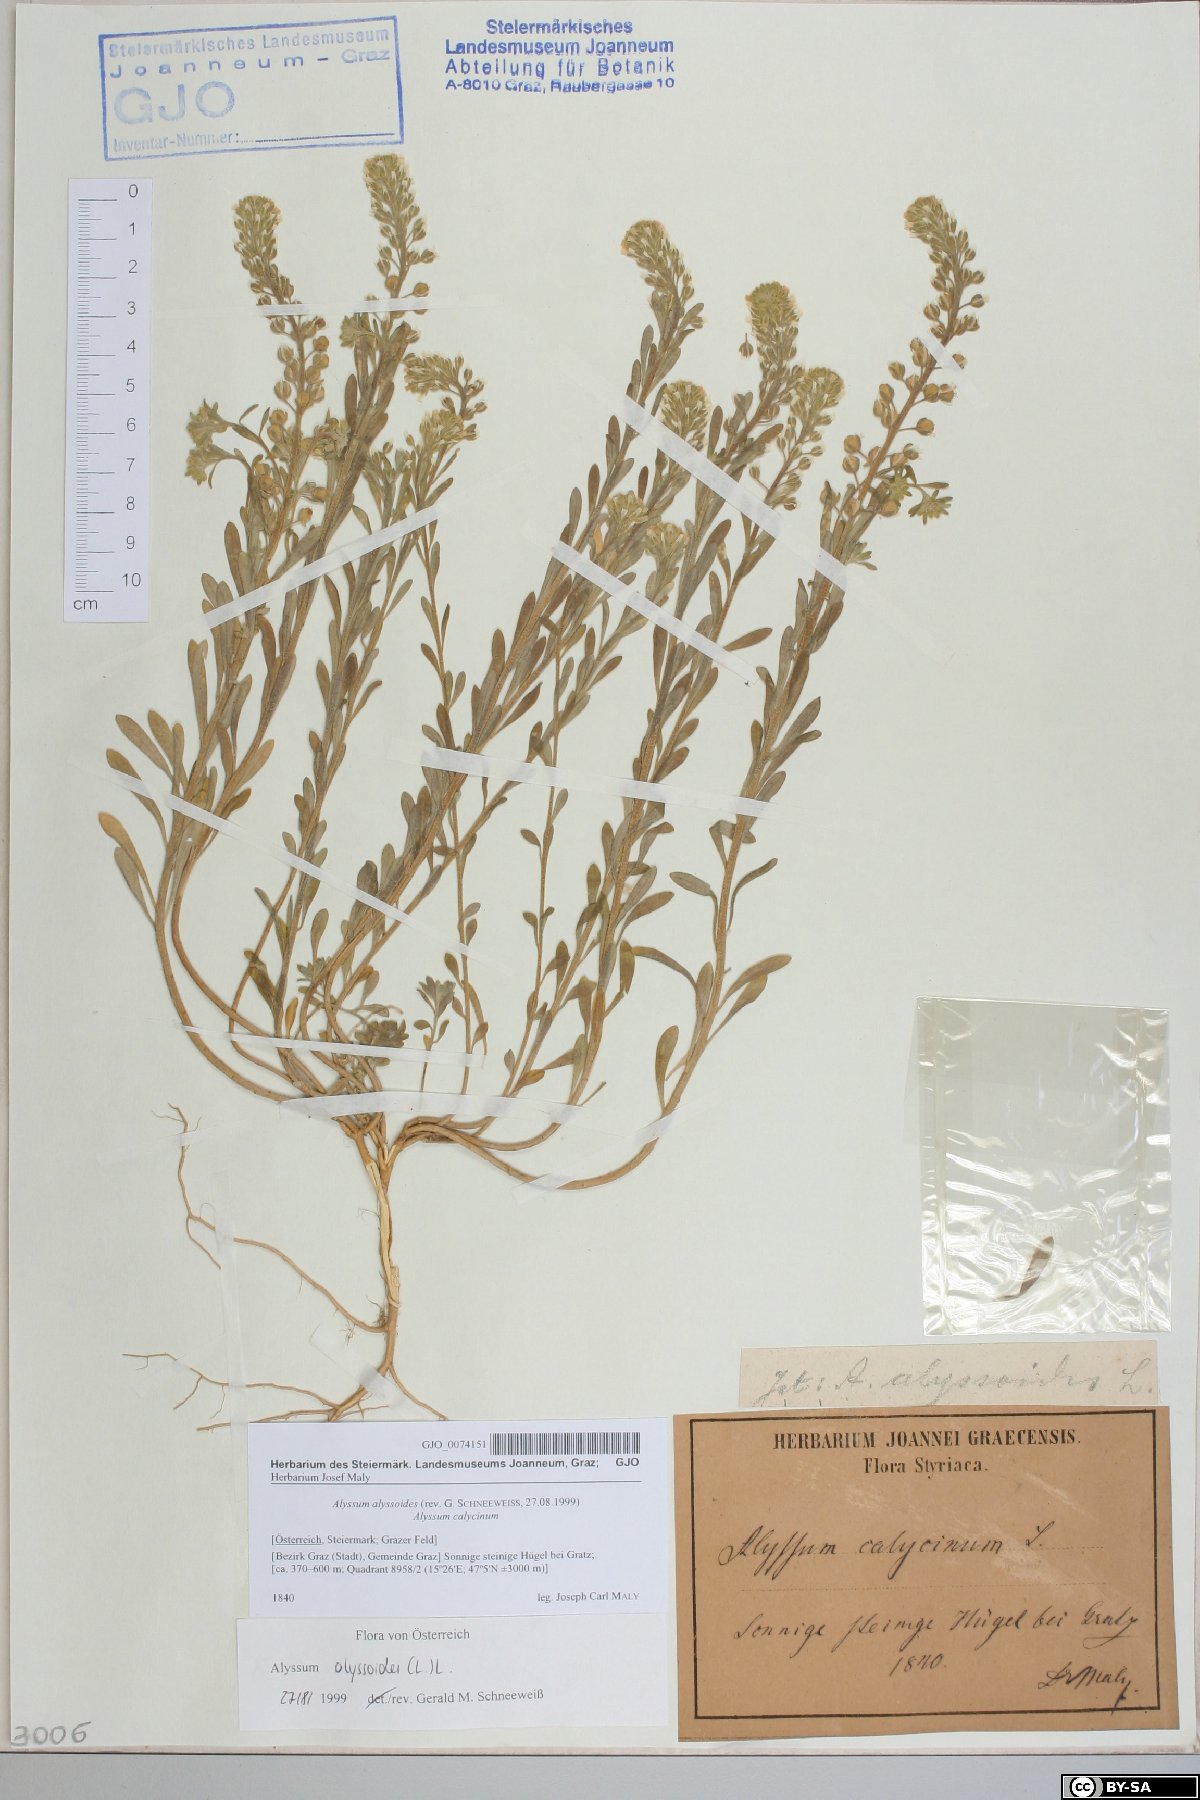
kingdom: Plantae
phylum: Tracheophyta
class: Magnoliopsida
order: Brassicales
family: Brassicaceae
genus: Alyssum
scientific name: Alyssum alyssoides
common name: Small alison
